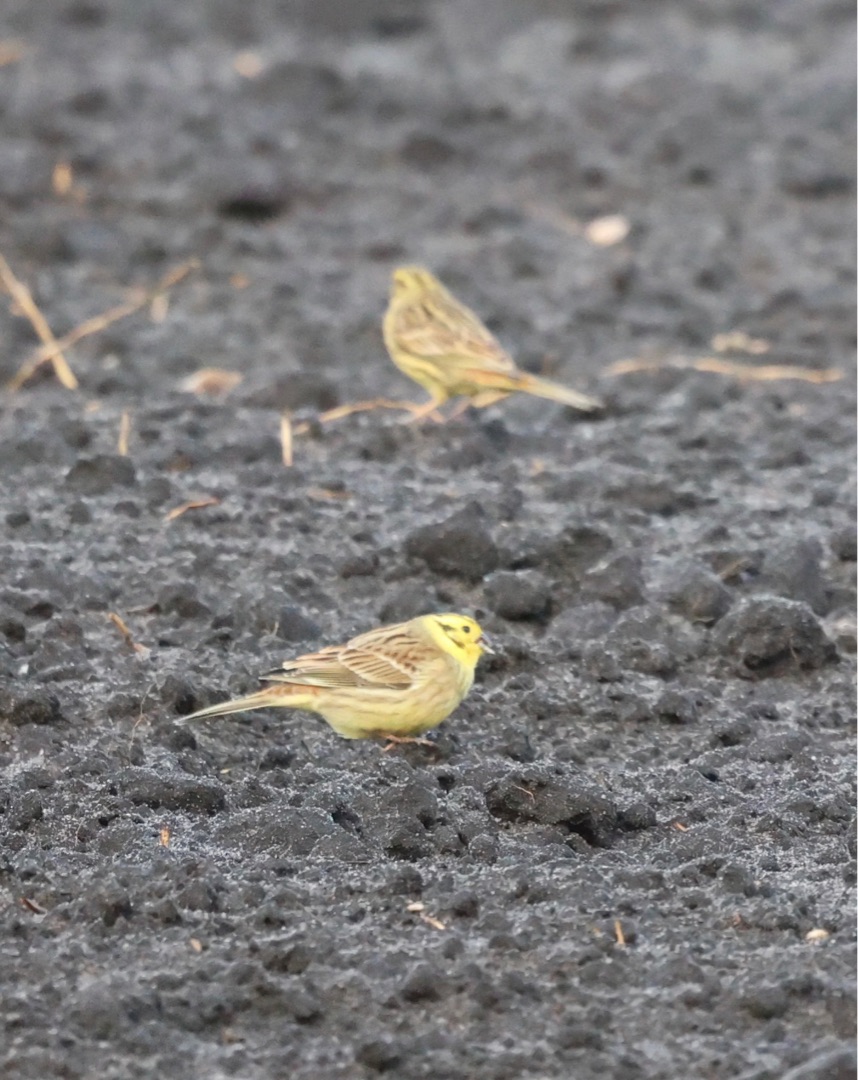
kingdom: Animalia
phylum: Chordata
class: Aves
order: Passeriformes
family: Emberizidae
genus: Emberiza
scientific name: Emberiza citrinella
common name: Gulspurv
